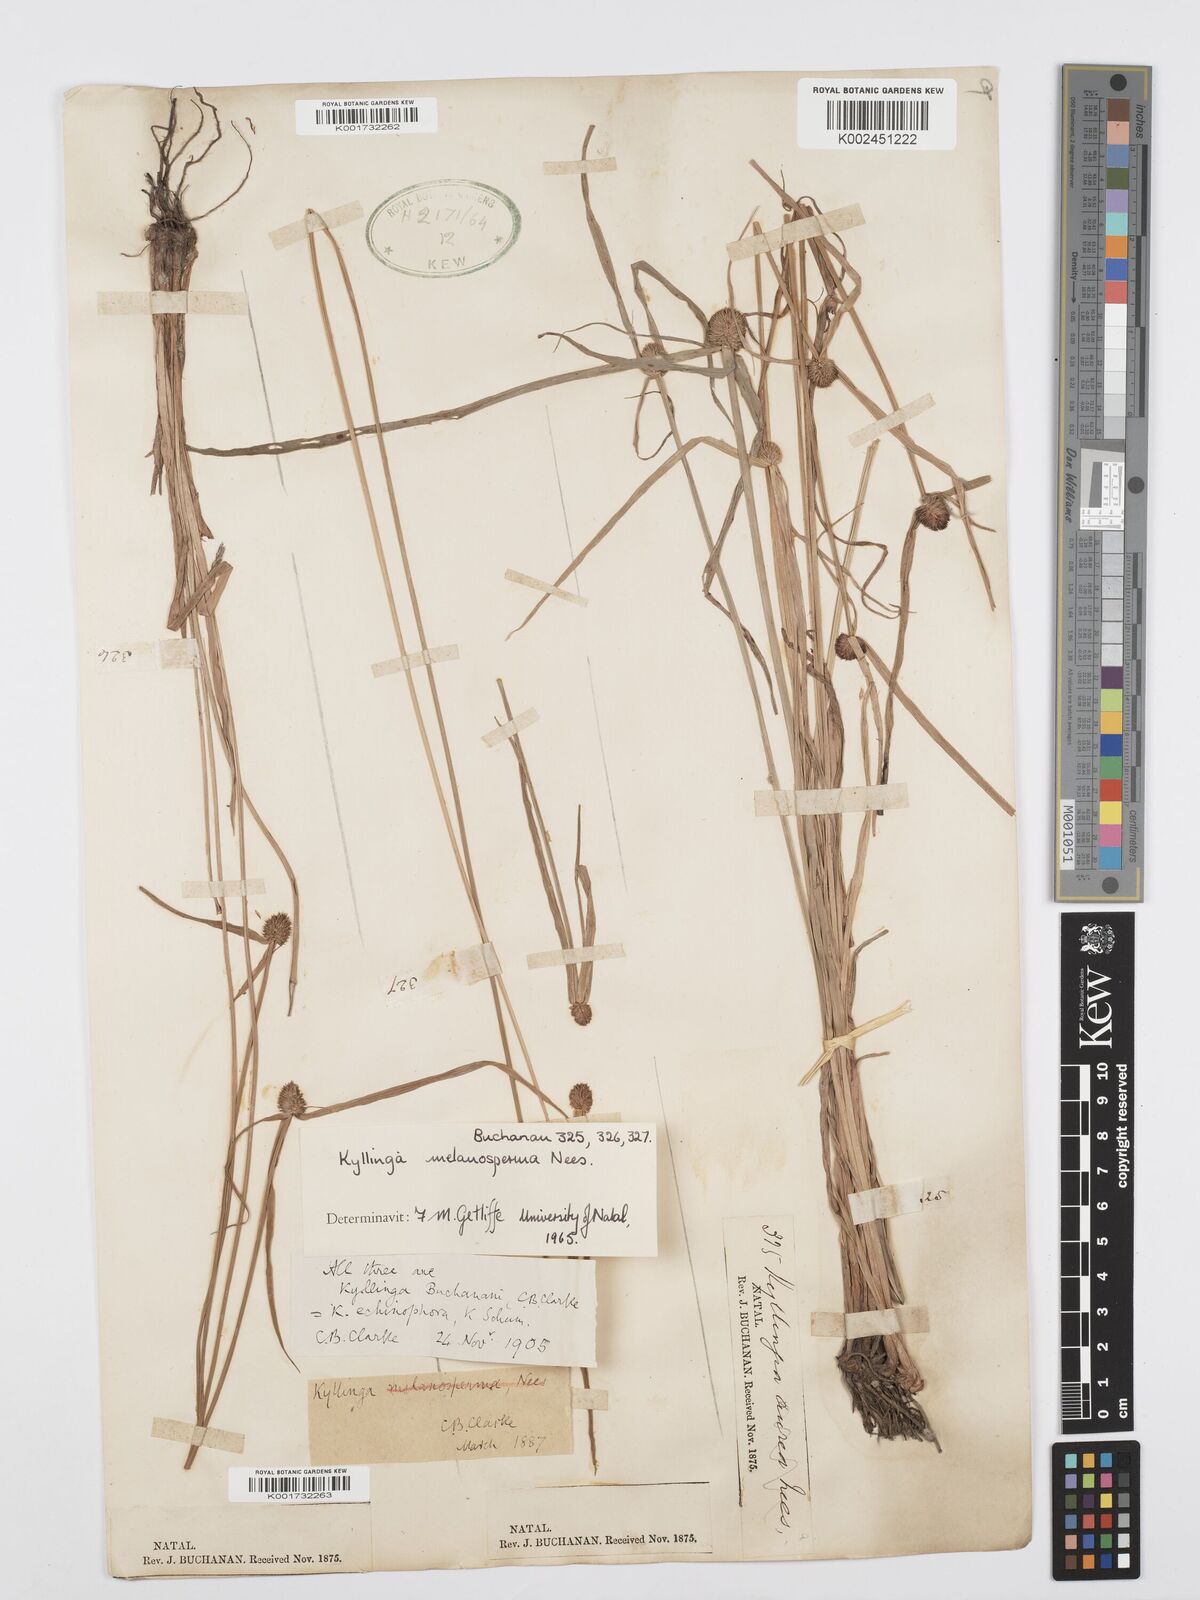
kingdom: Plantae
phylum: Tracheophyta
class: Liliopsida
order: Poales
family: Cyperaceae
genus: Cyperus
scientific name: Cyperus melanospermus
